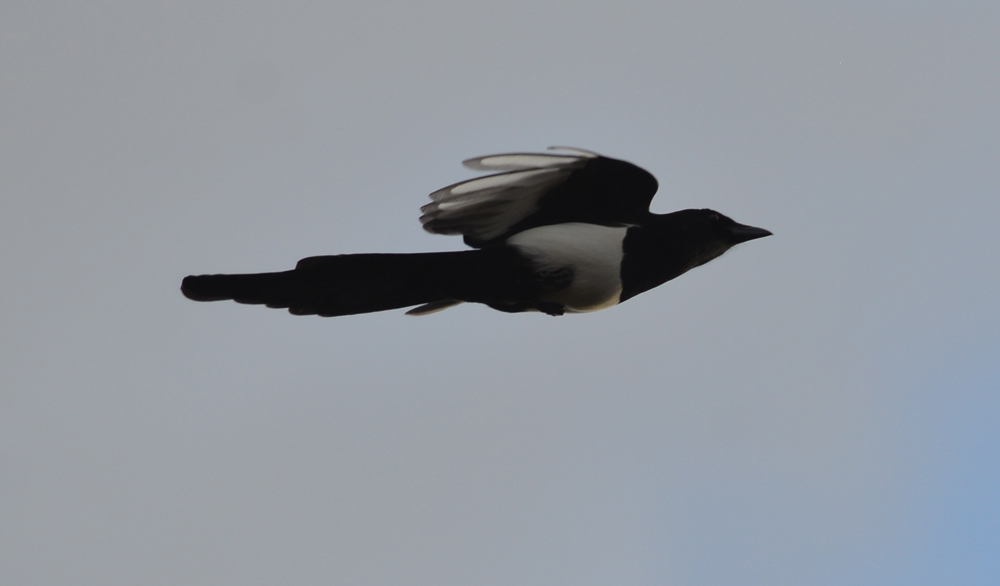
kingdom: Animalia
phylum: Chordata
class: Aves
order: Passeriformes
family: Corvidae
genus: Pica
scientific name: Pica pica
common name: Eurasian magpie
